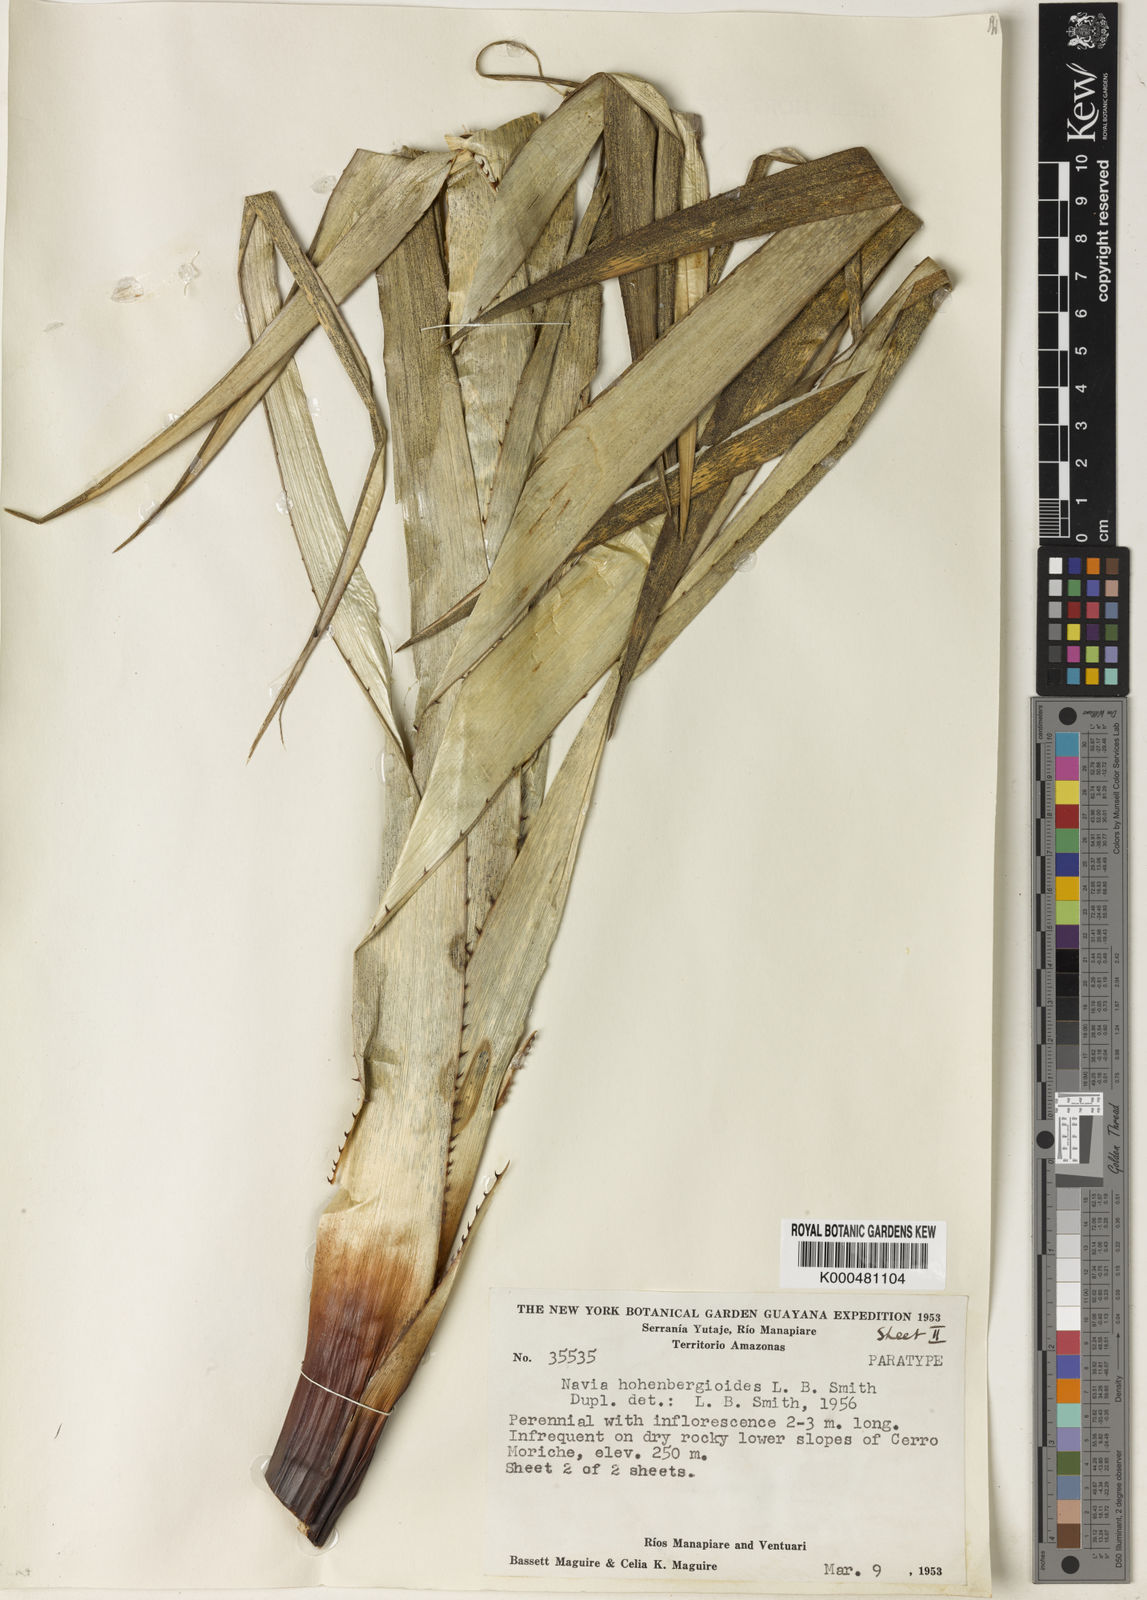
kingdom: Plantae
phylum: Tracheophyta
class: Liliopsida
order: Poales
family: Bromeliaceae
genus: Navia
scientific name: Navia hohenbergioides
